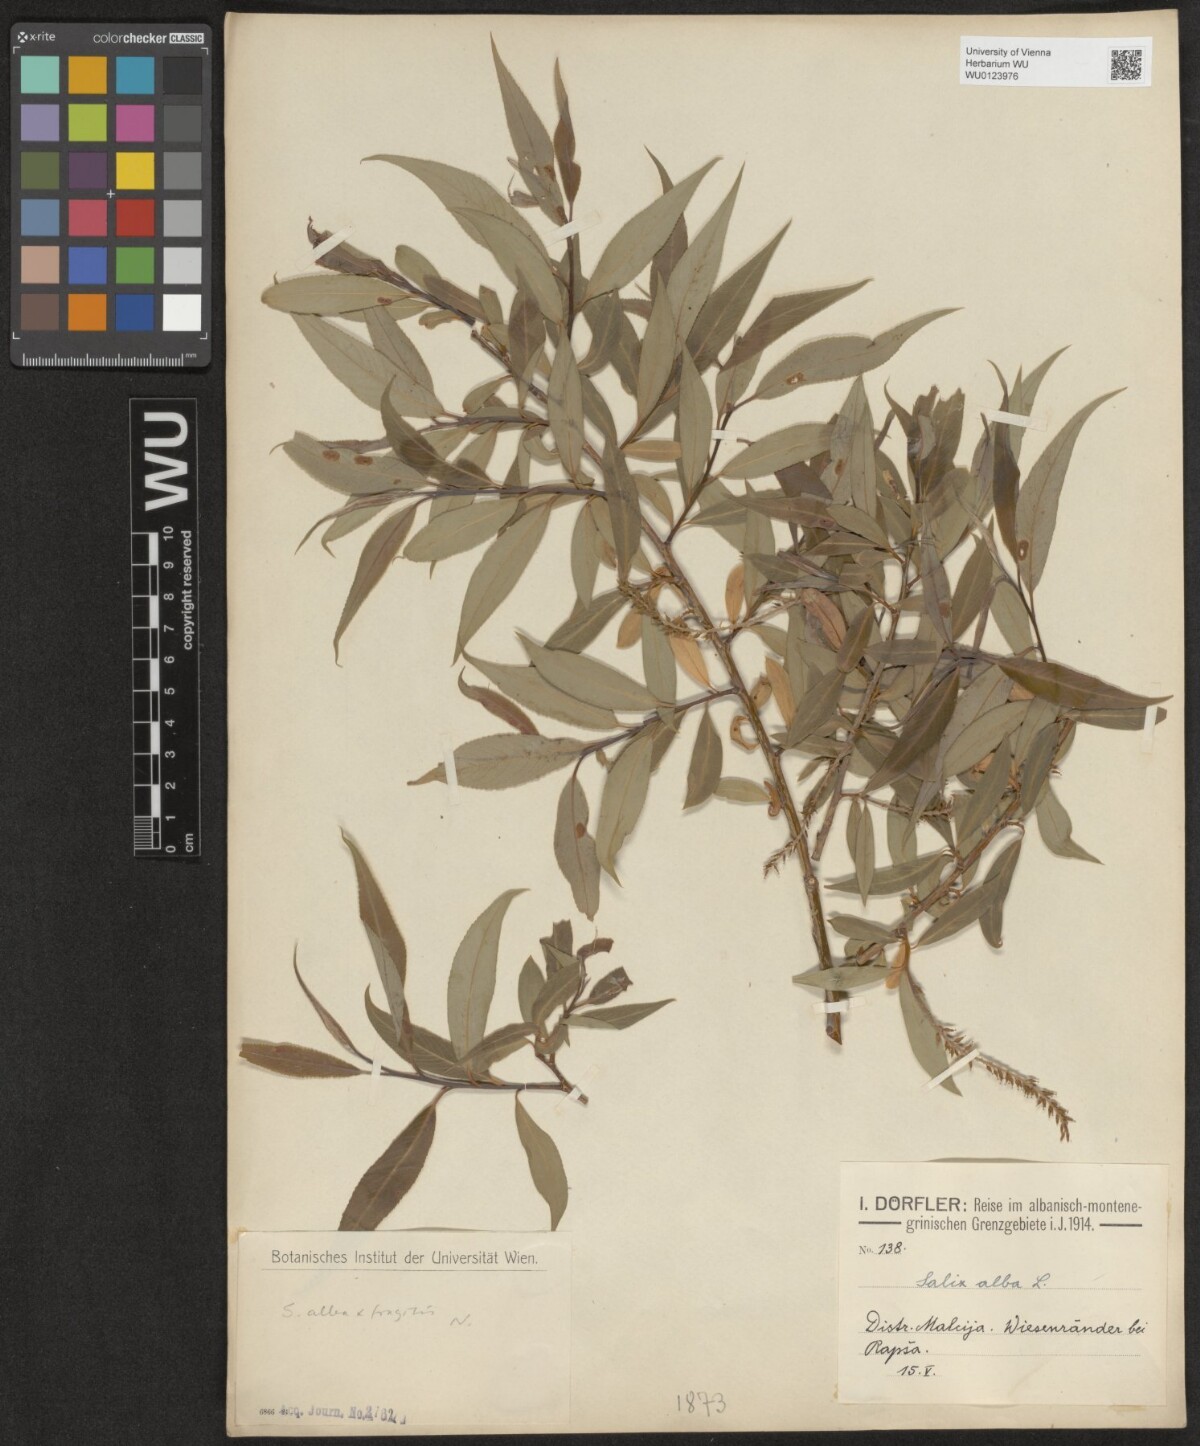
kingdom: Plantae
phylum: Tracheophyta
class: Magnoliopsida
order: Malpighiales
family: Salicaceae
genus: Salix
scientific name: Salix alba
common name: White willow
